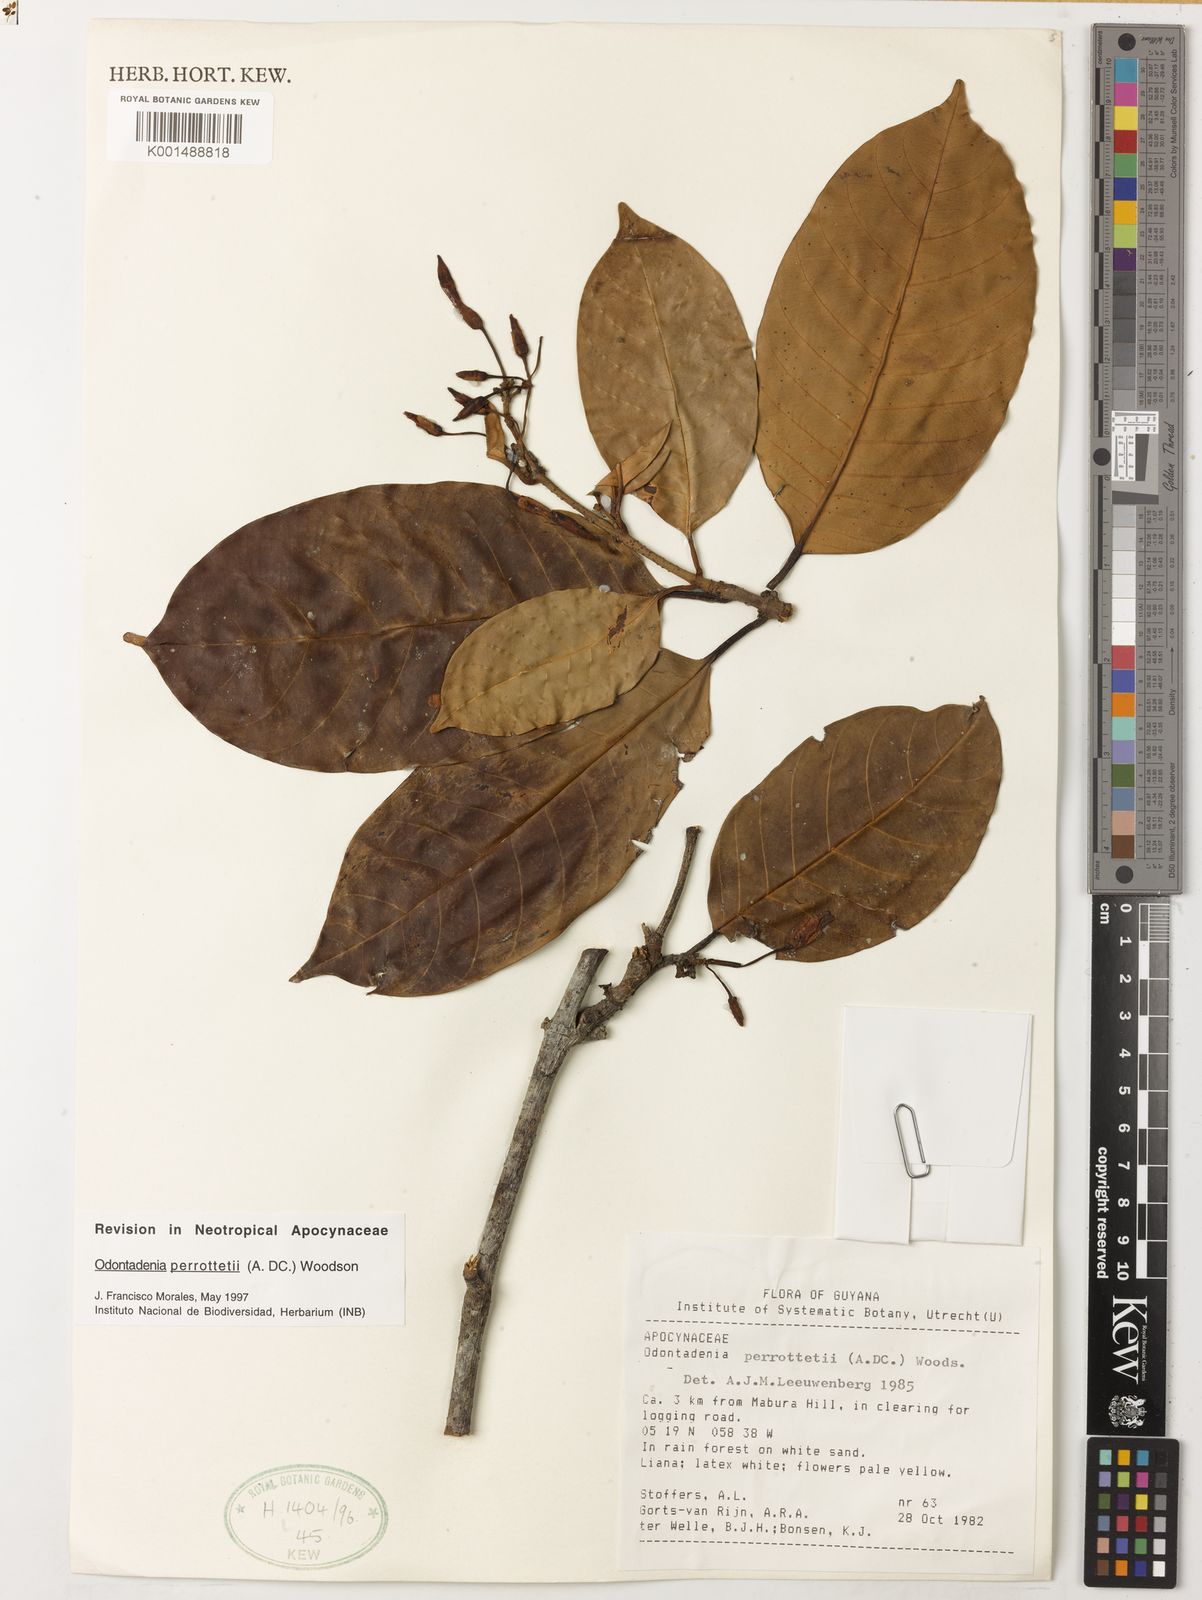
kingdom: Plantae
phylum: Tracheophyta
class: Magnoliopsida
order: Gentianales
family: Apocynaceae
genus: Odontadenia
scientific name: Odontadenia perrottetii
